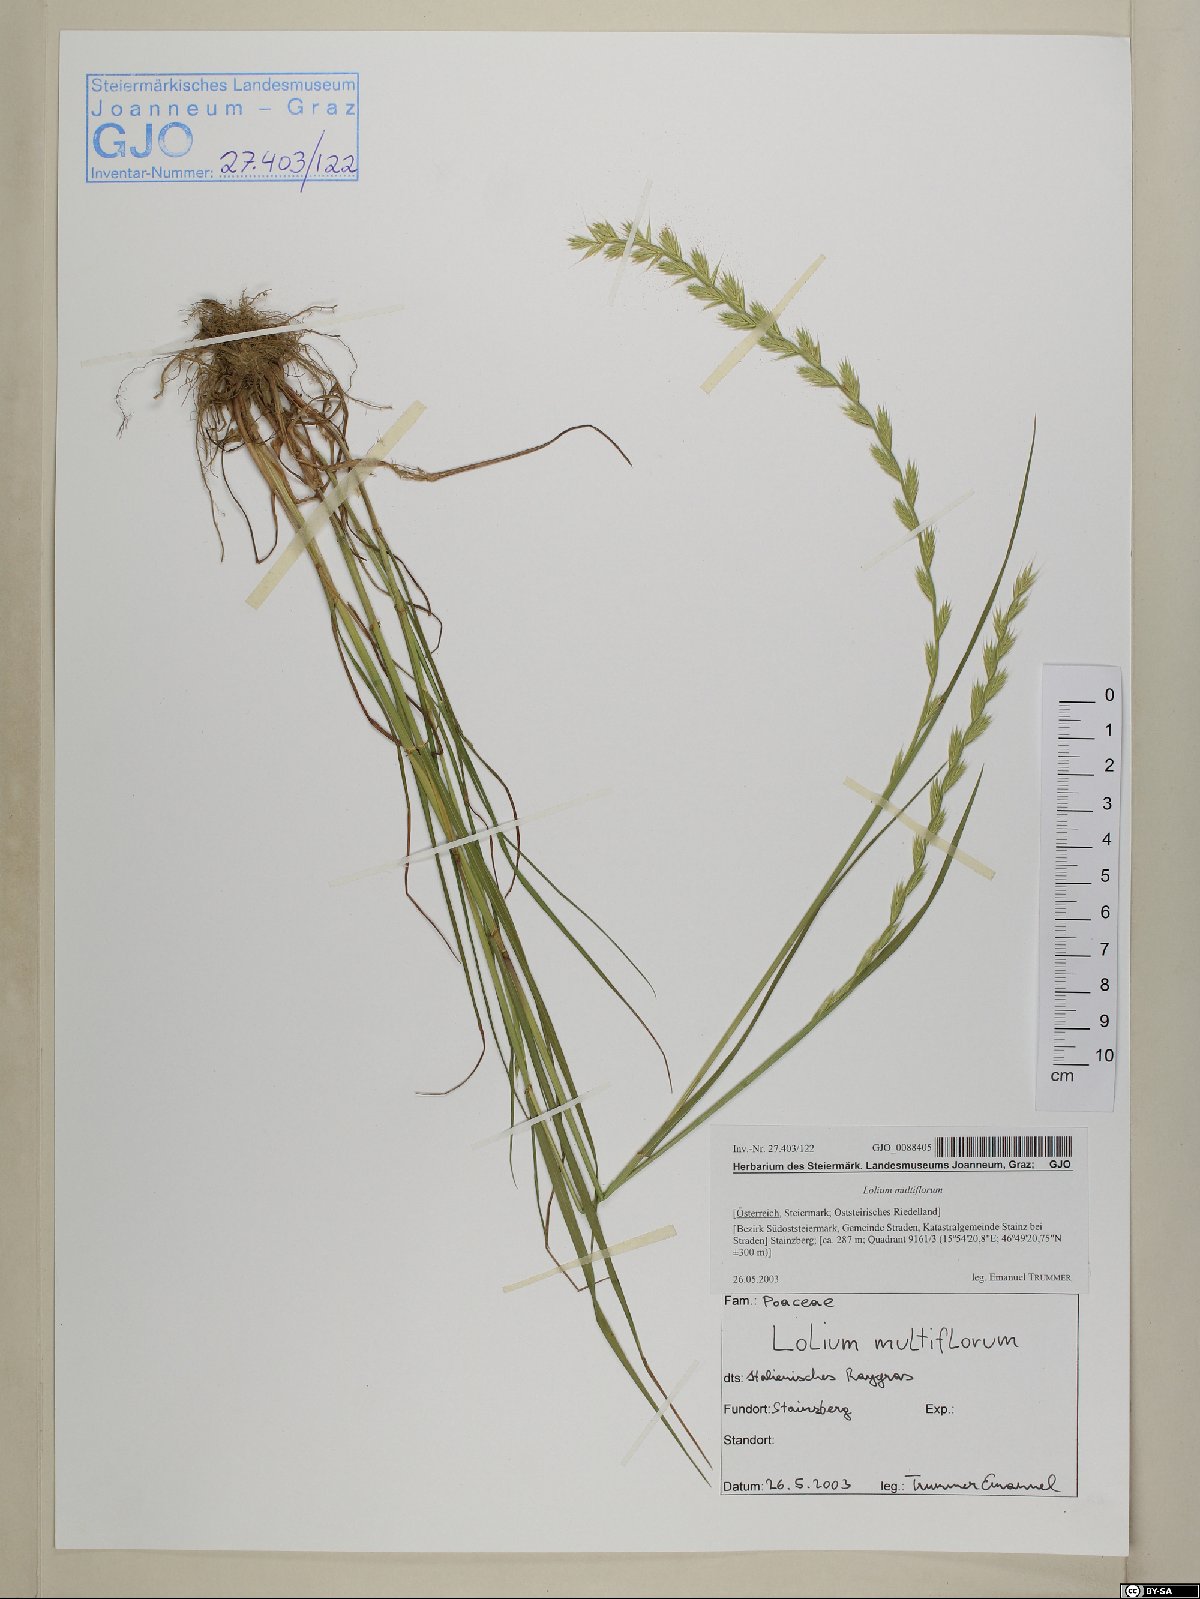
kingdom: Plantae
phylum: Tracheophyta
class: Liliopsida
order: Poales
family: Poaceae
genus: Lolium
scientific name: Lolium multiflorum
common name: Annual ryegrass
